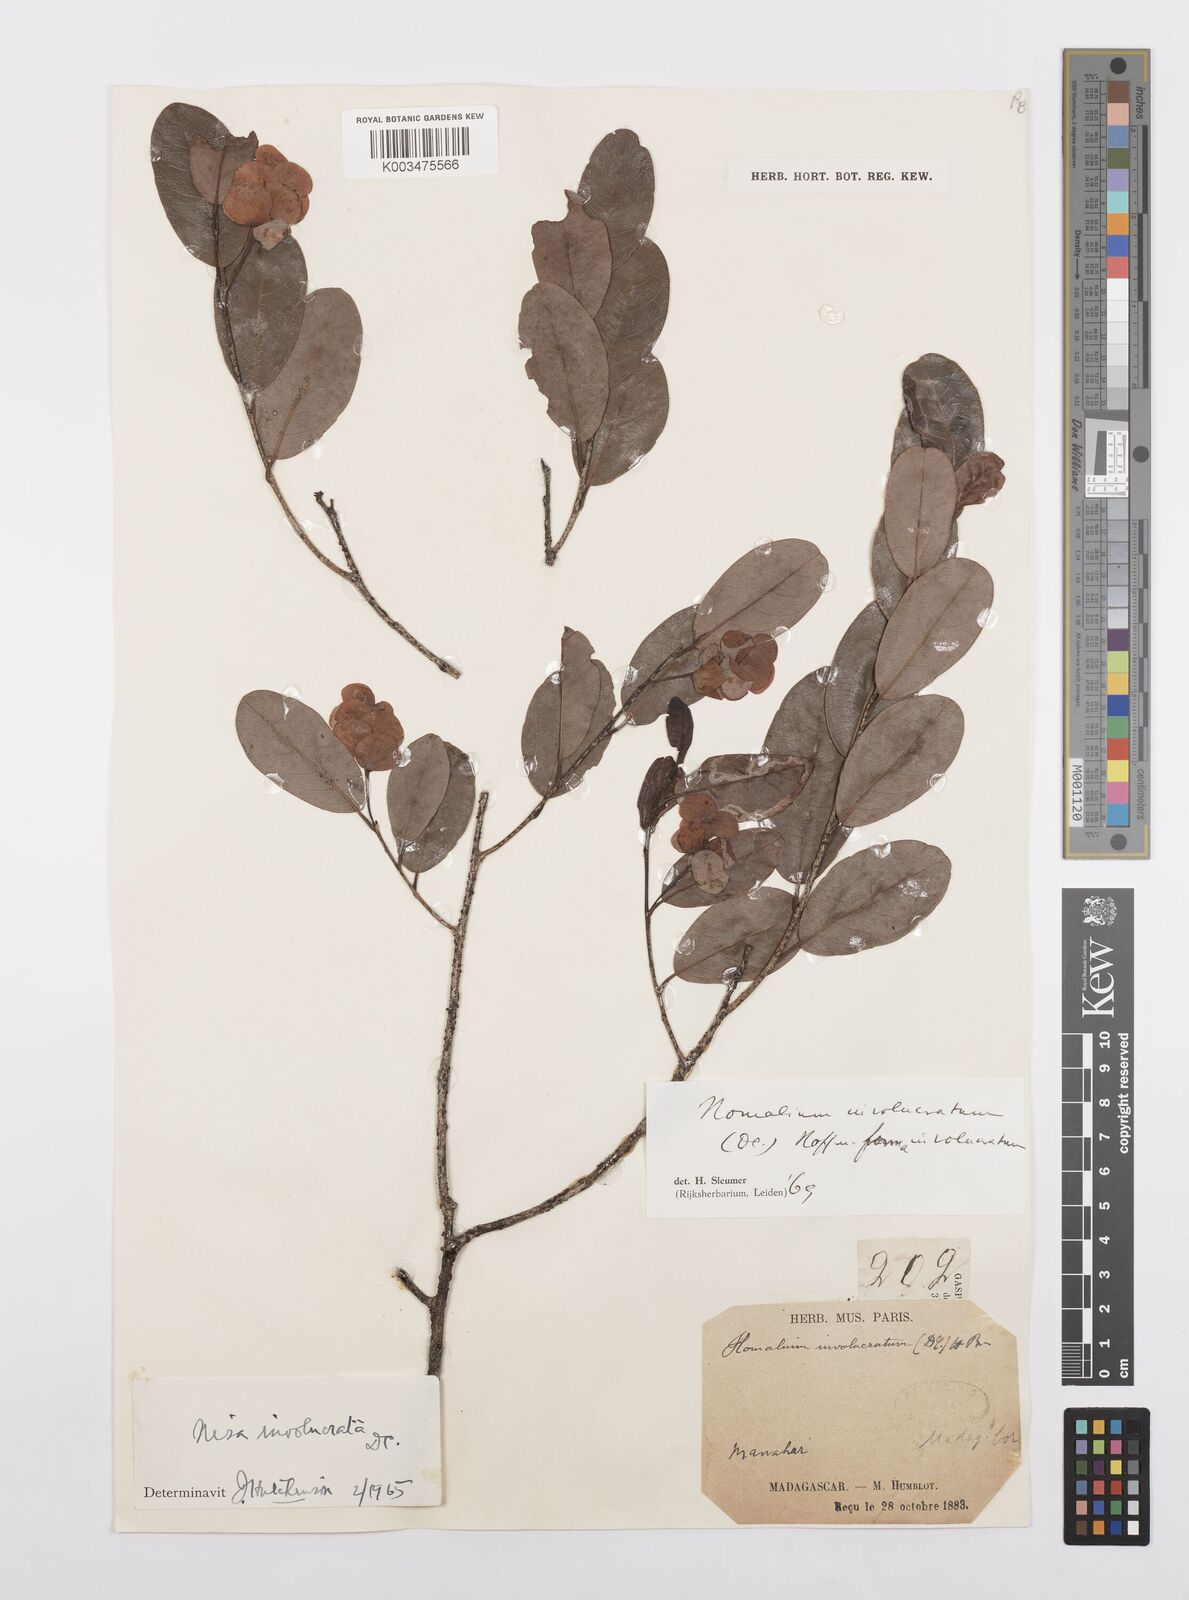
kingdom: Plantae
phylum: Tracheophyta
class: Magnoliopsida
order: Malpighiales
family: Salicaceae
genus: Homalium
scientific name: Homalium involucratum
